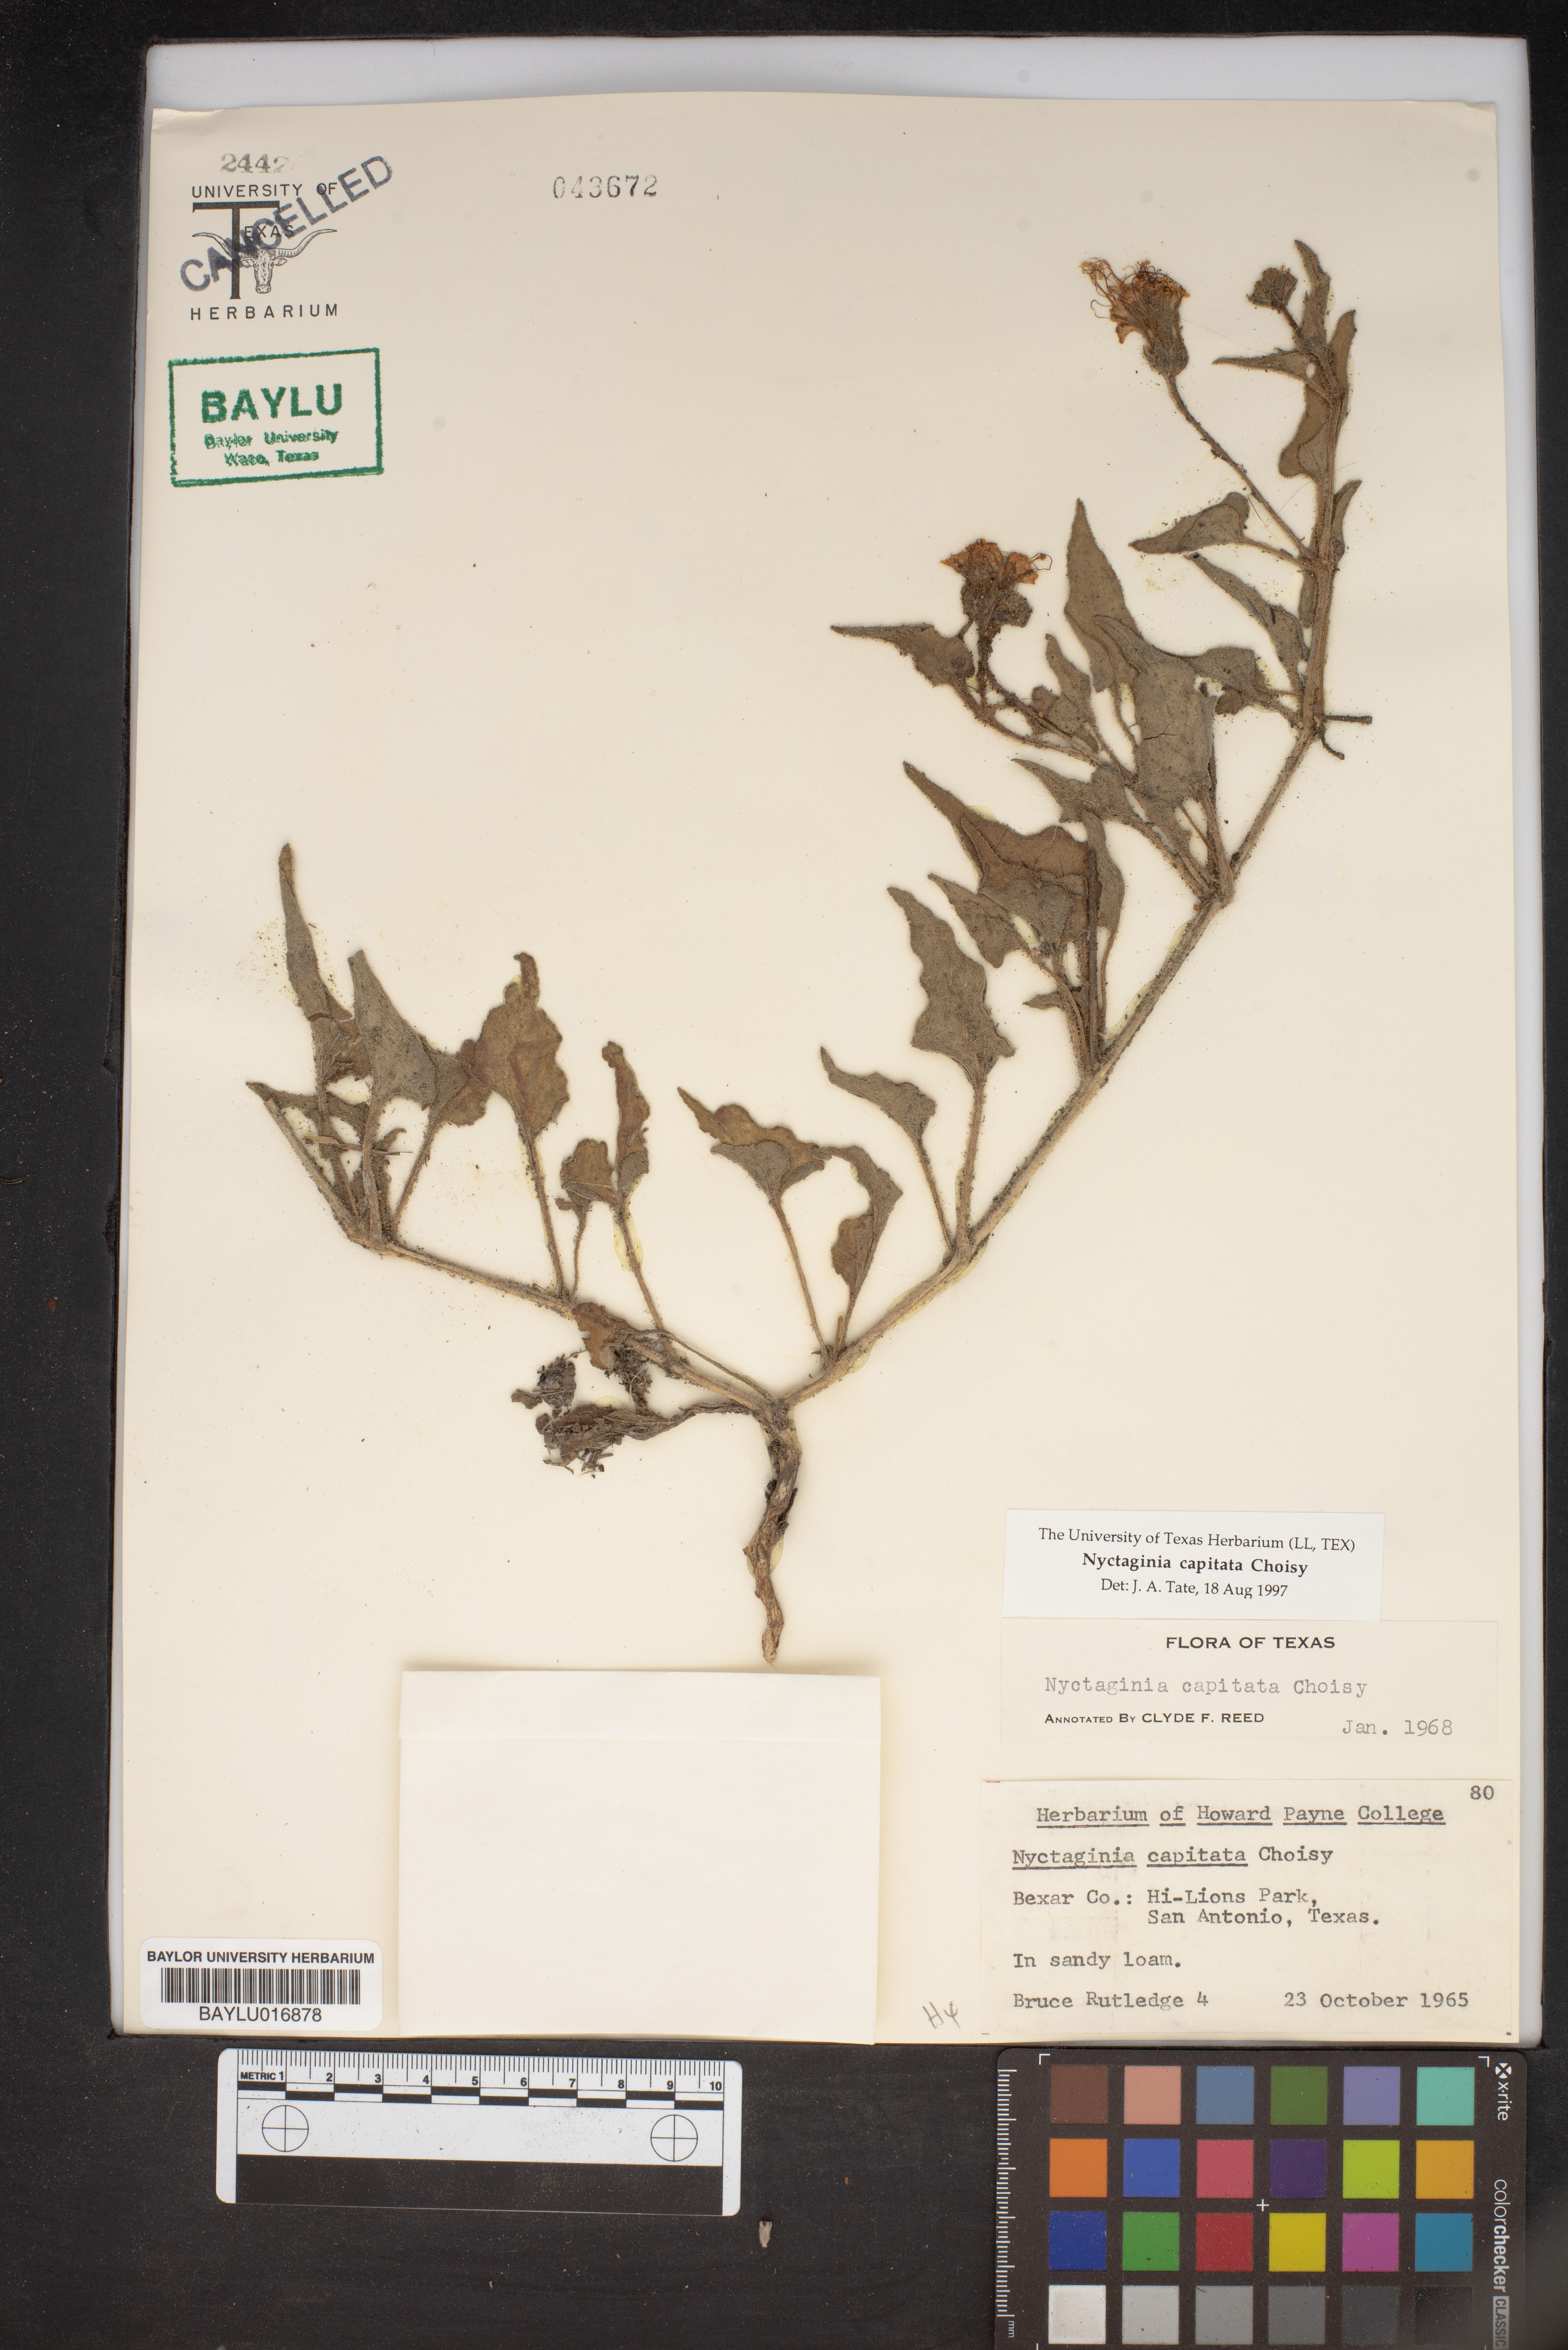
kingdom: Plantae
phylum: Tracheophyta
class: Magnoliopsida
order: Caryophyllales
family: Nyctaginaceae
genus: Nyctaginia
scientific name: Nyctaginia capitata
